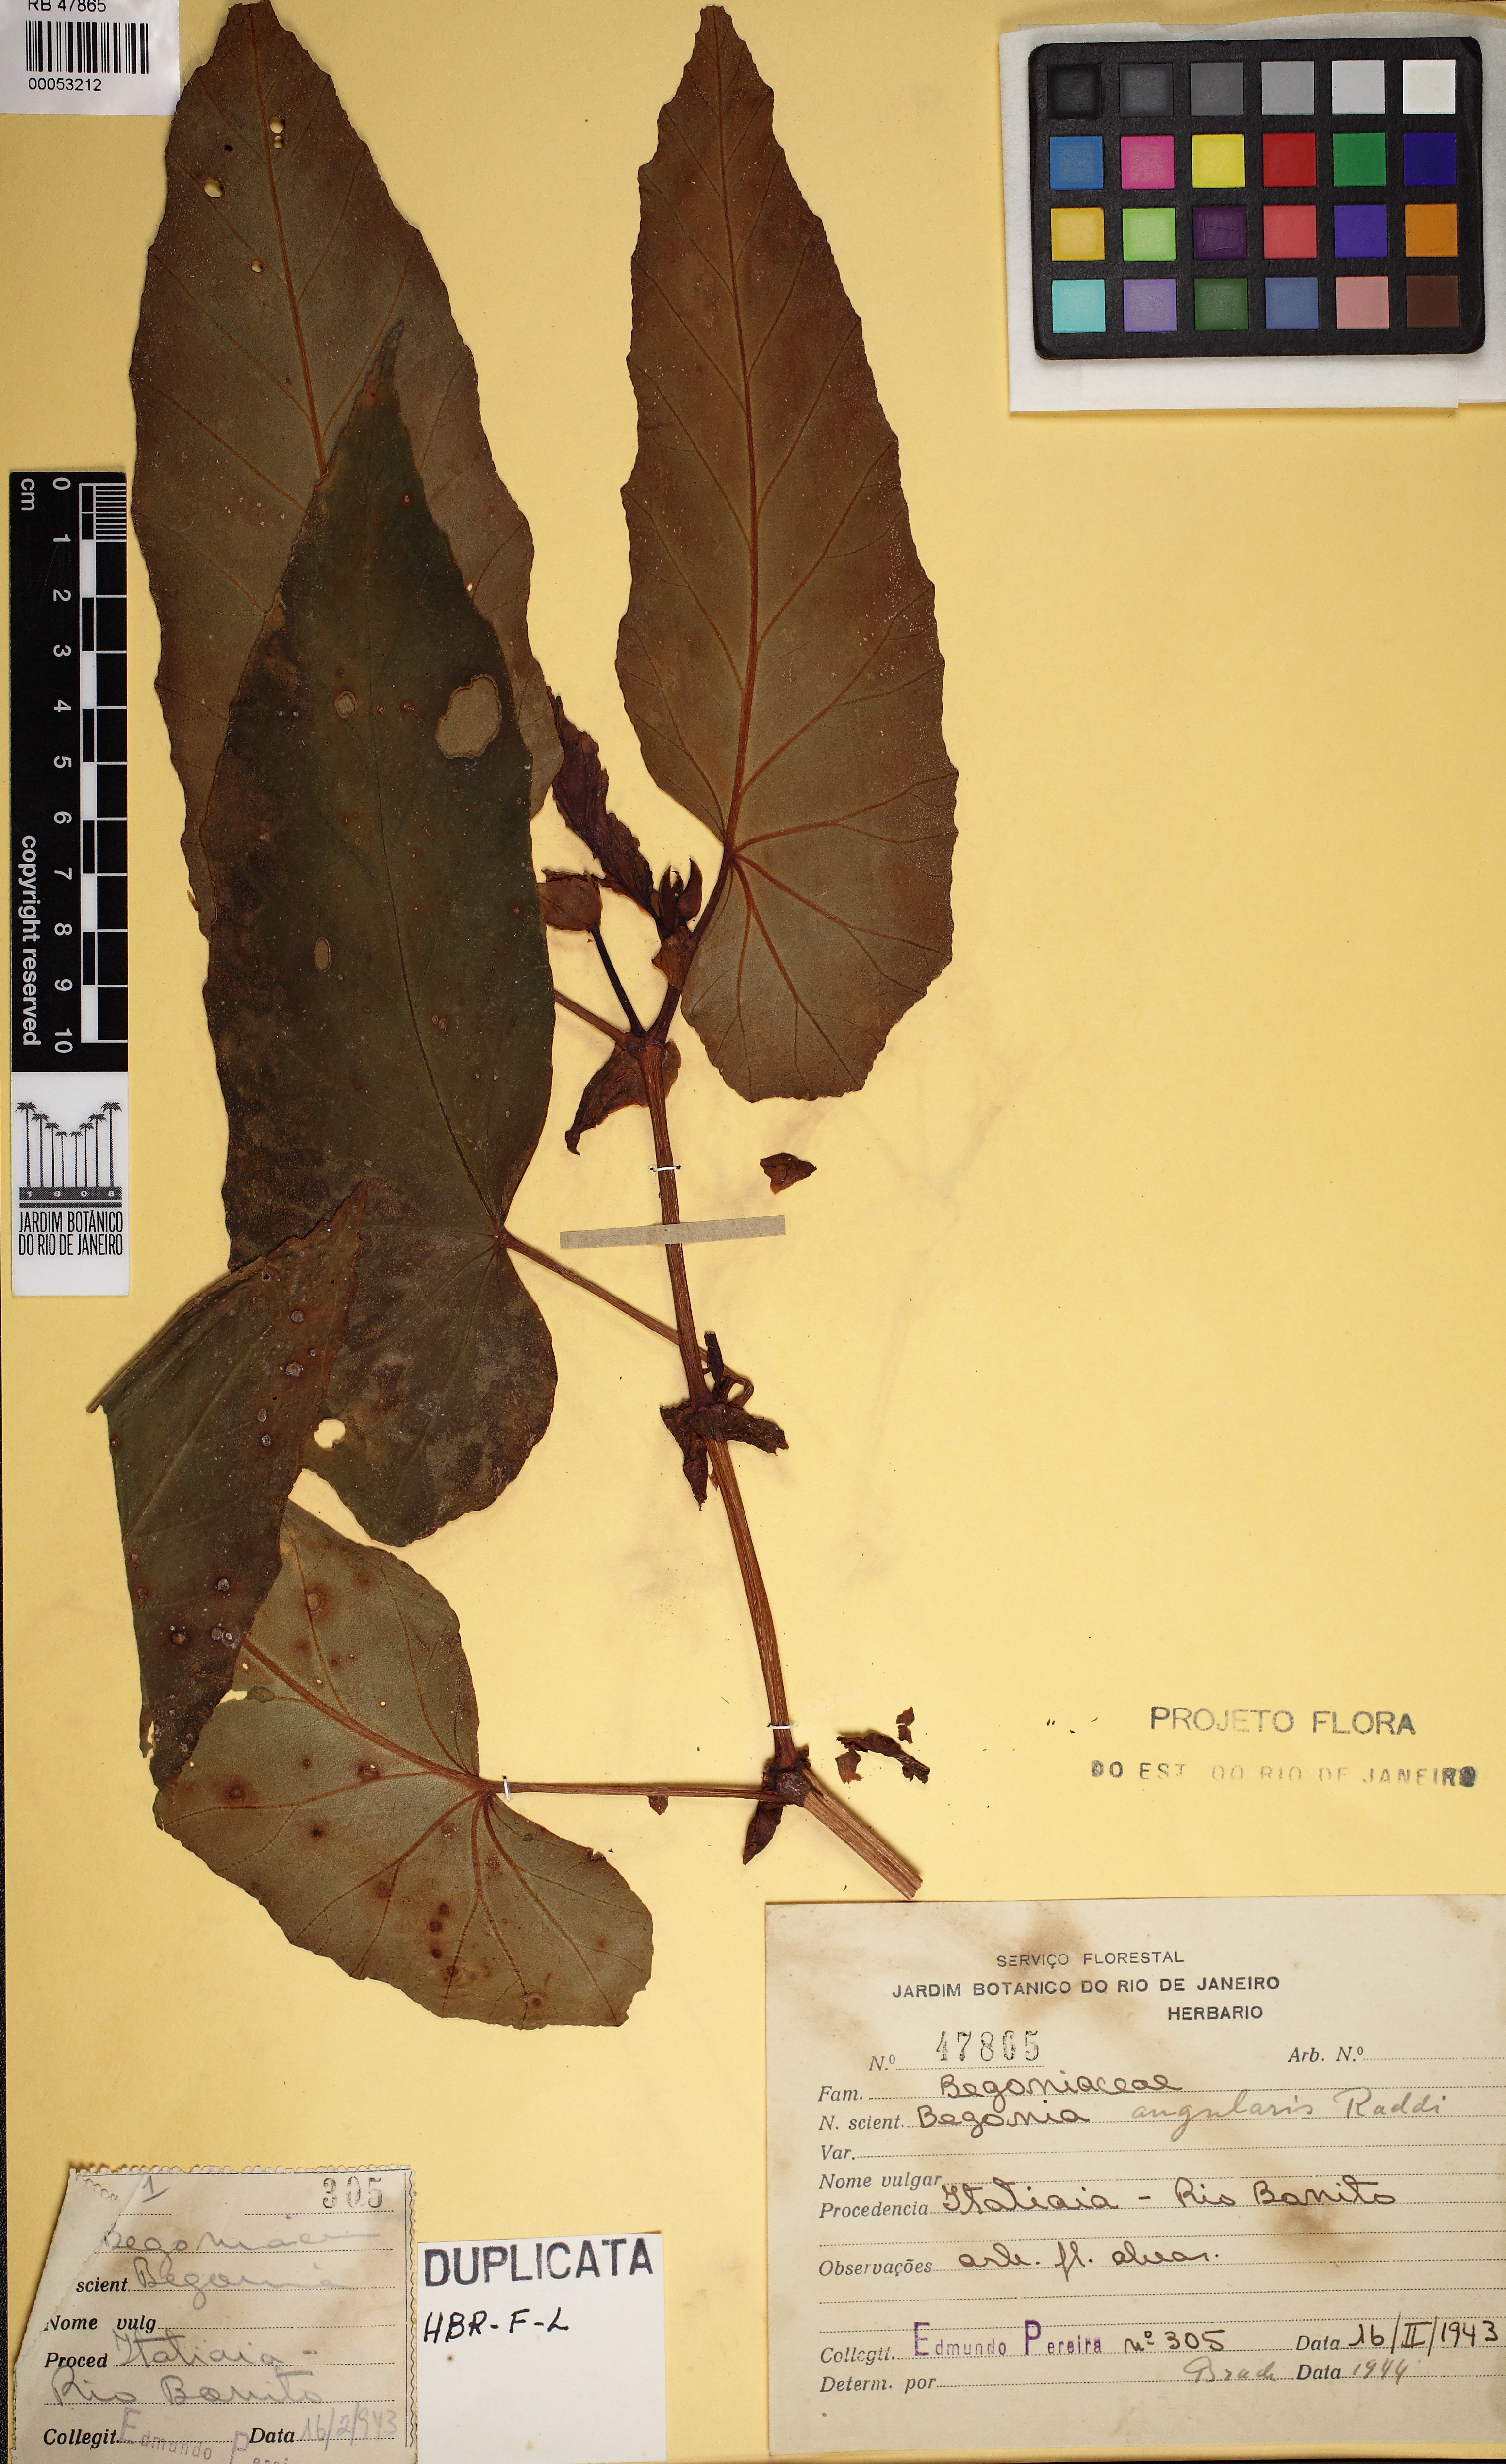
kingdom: Plantae
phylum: Tracheophyta
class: Magnoliopsida
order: Cucurbitales
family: Begoniaceae
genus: Begonia
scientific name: Begonia angularis
